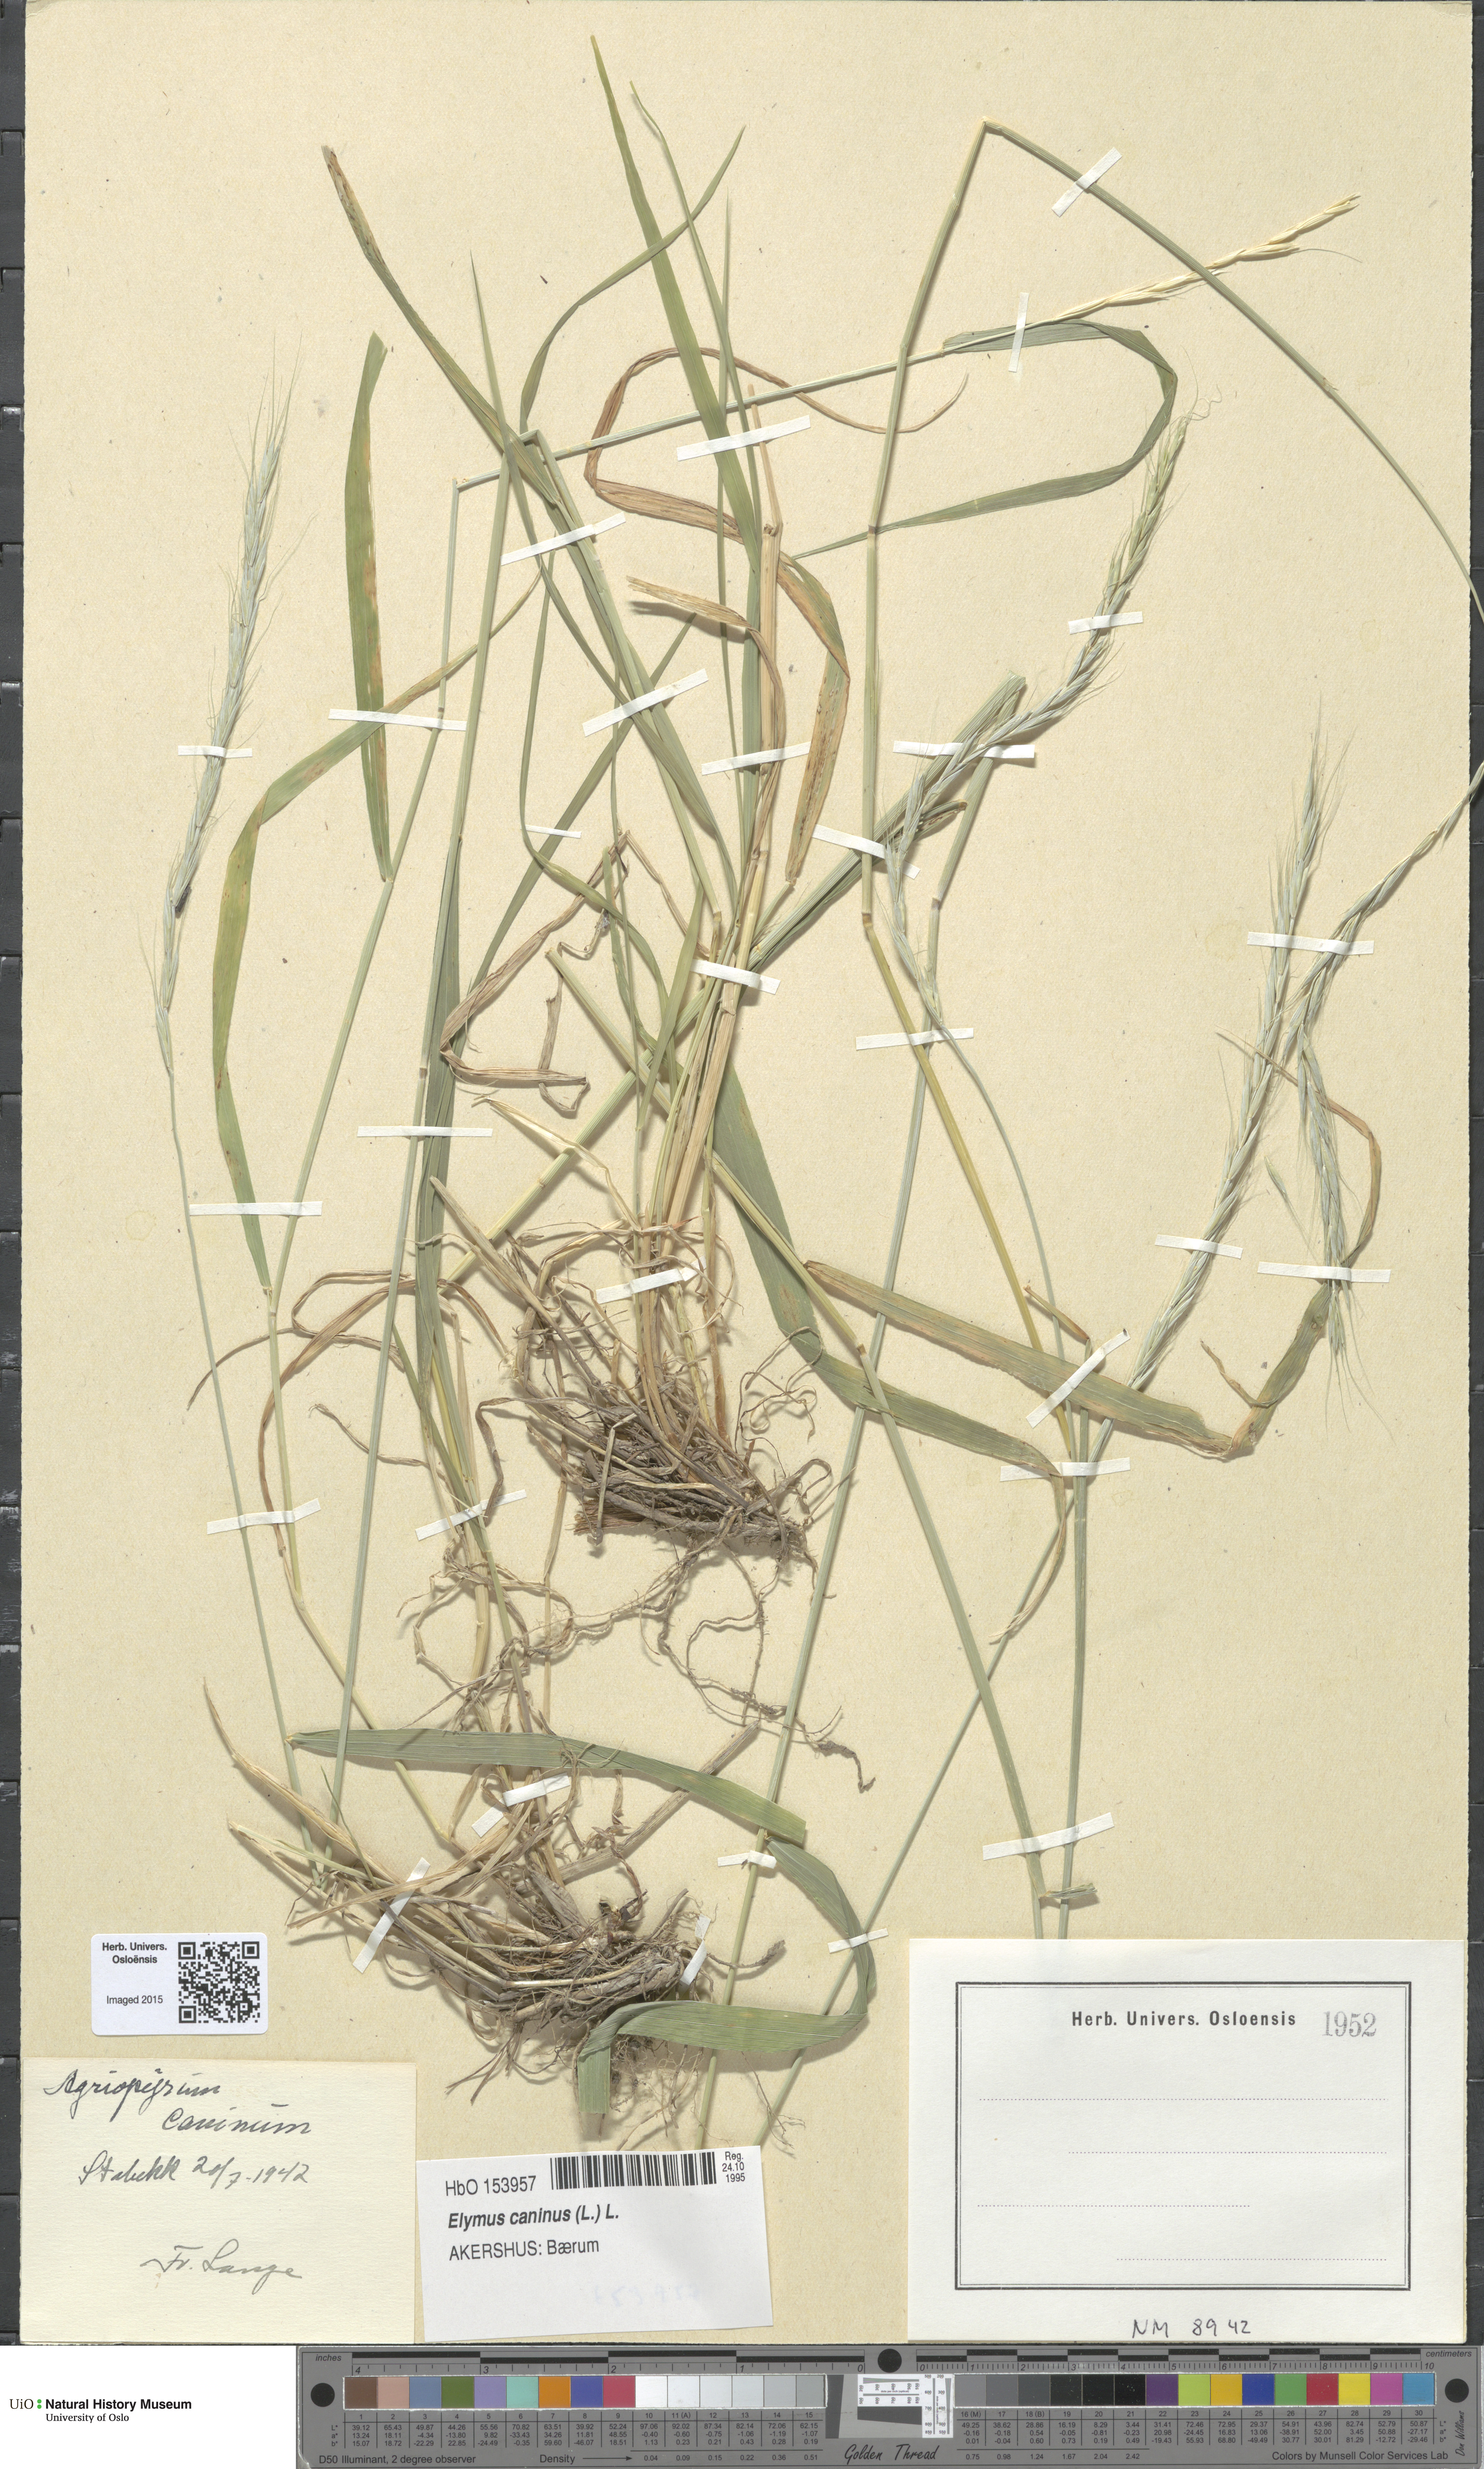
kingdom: Plantae
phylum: Tracheophyta
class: Liliopsida
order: Poales
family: Poaceae
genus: Elymus
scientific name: Elymus caninus
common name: Bearded couch
